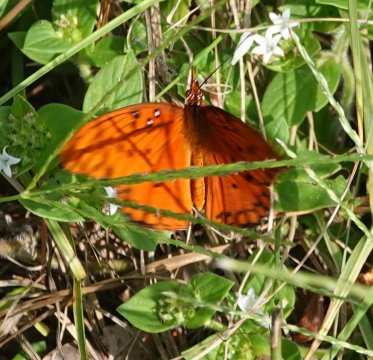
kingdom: Animalia
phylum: Arthropoda
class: Insecta
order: Lepidoptera
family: Nymphalidae
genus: Dione
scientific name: Dione vanillae
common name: Gulf Fritillary
